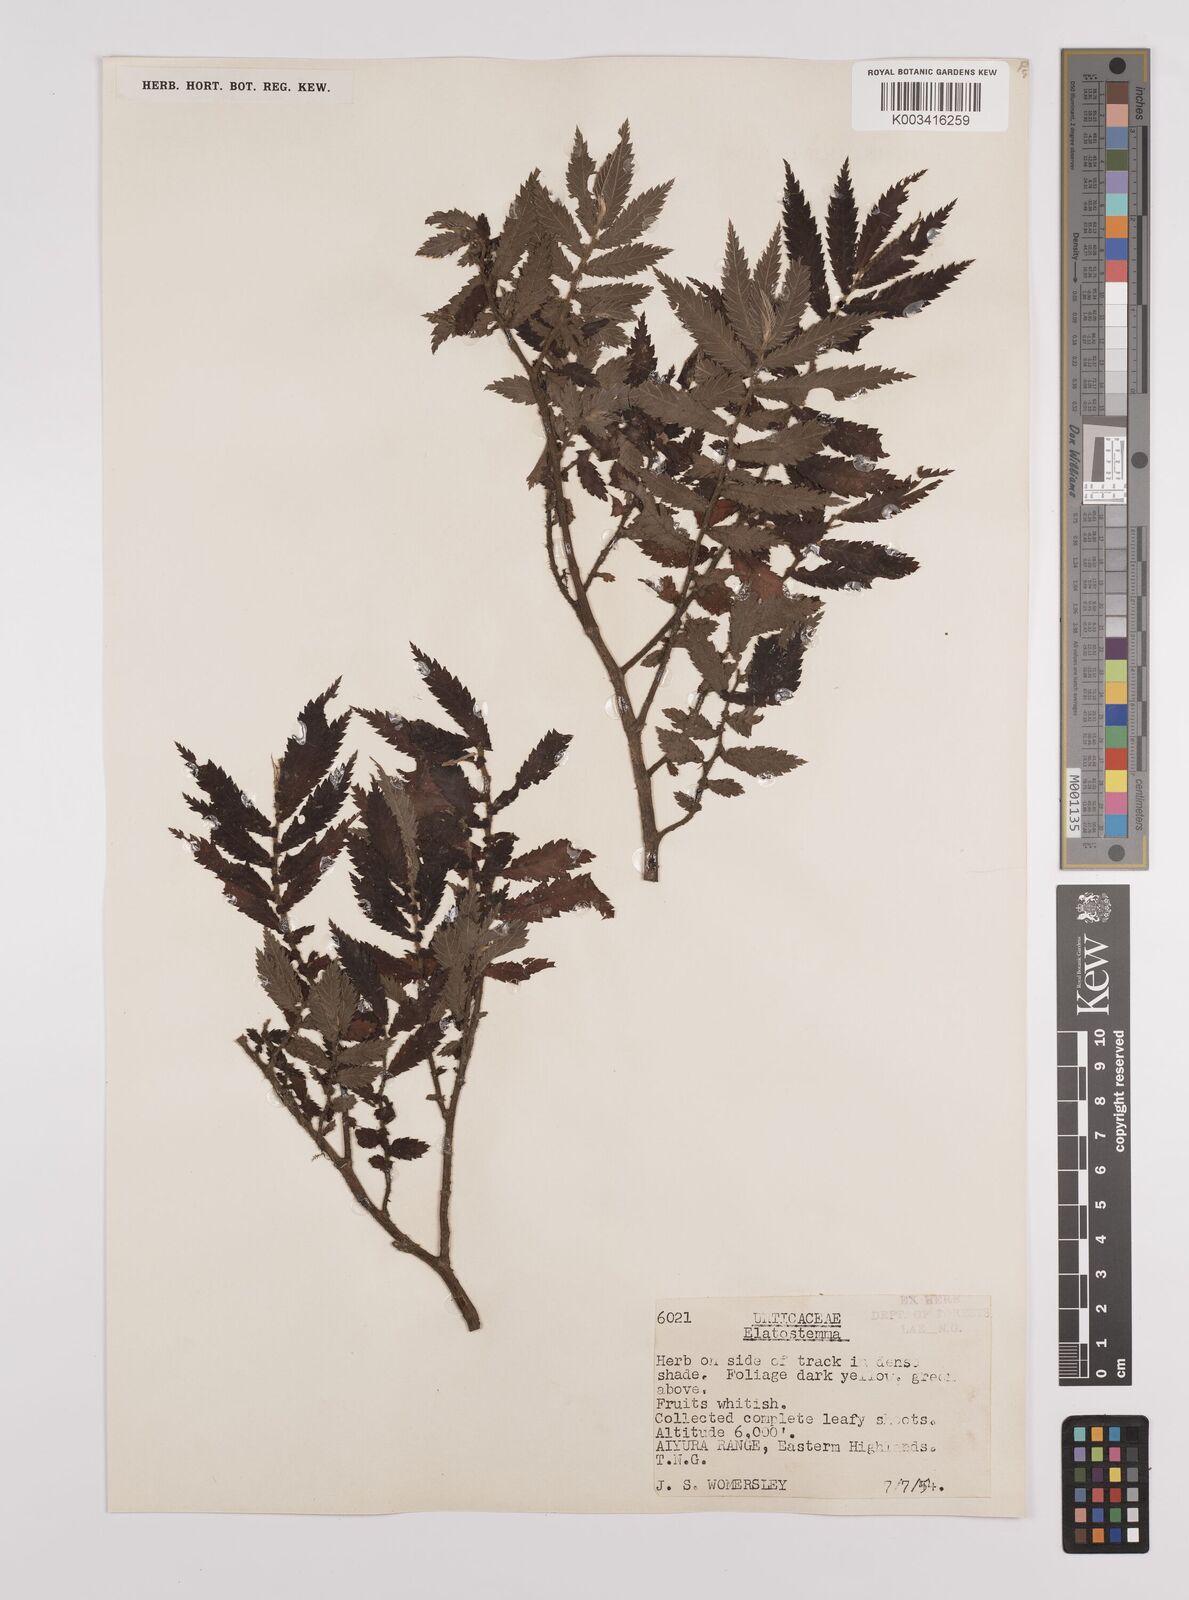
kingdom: Plantae
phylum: Tracheophyta
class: Magnoliopsida
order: Rosales
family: Urticaceae
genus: Elatostema
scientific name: Elatostema blechnoides
